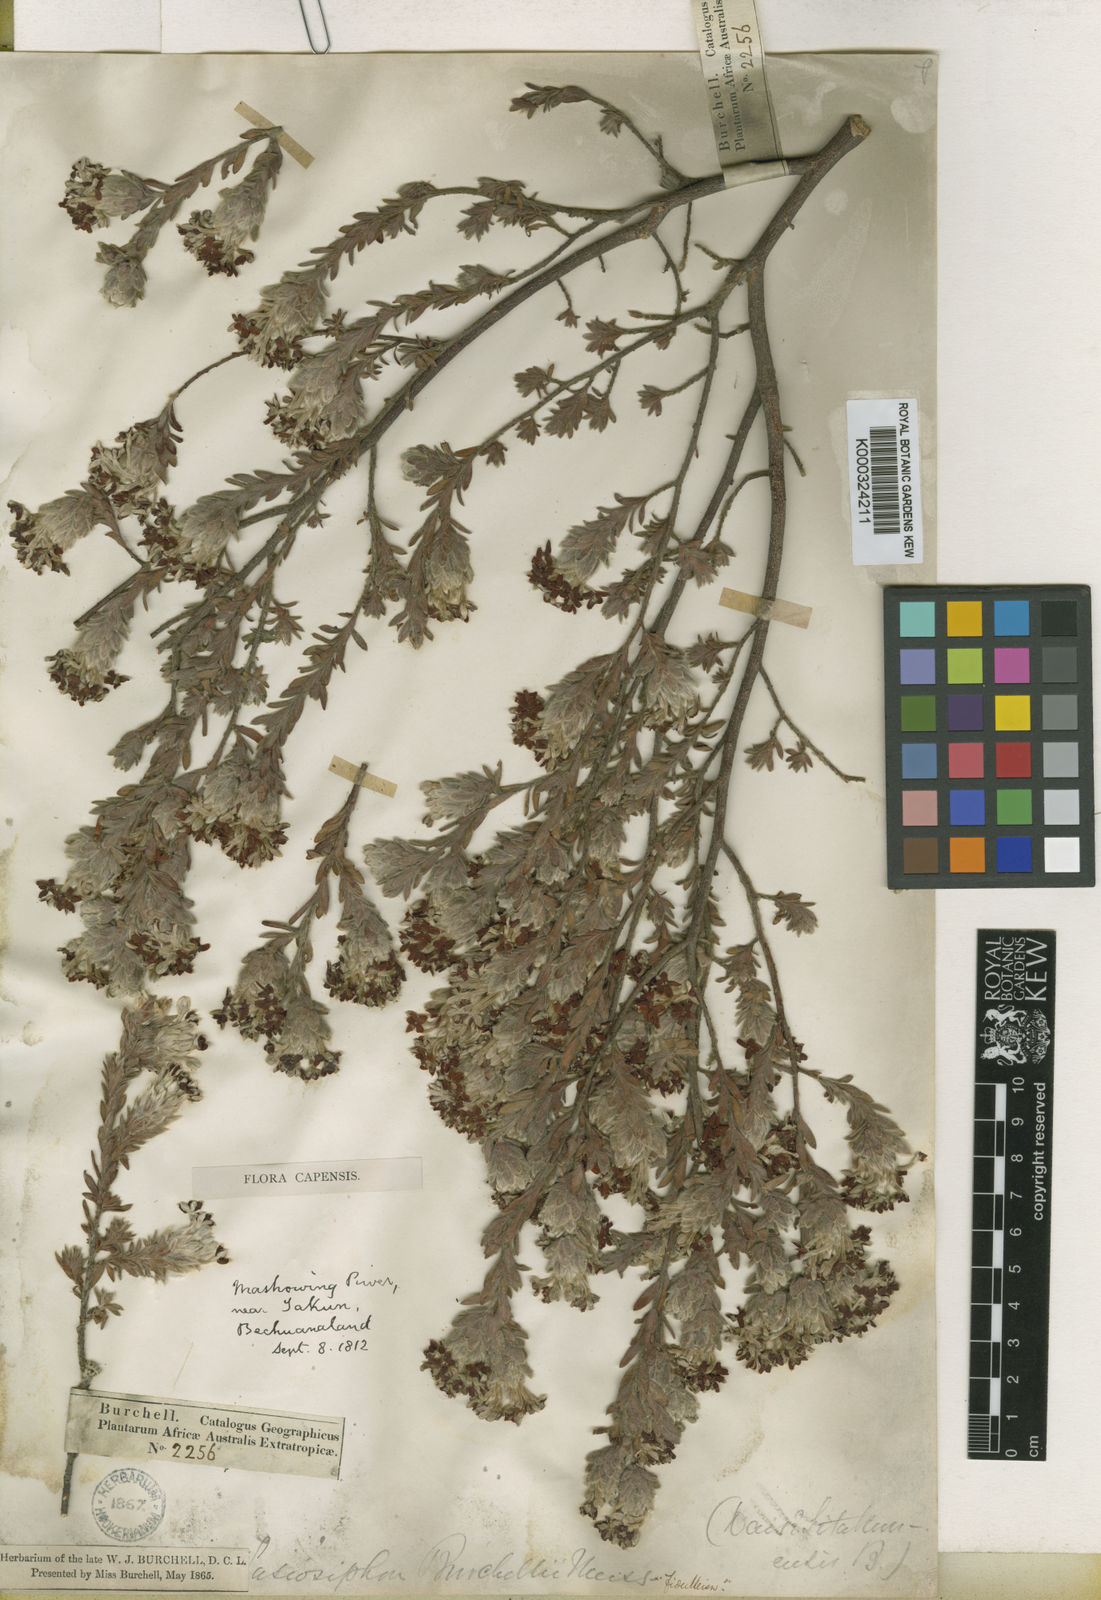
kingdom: Plantae
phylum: Tracheophyta
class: Magnoliopsida
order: Malvales
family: Thymelaeaceae
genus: Gnidia
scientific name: Gnidia burchellii
